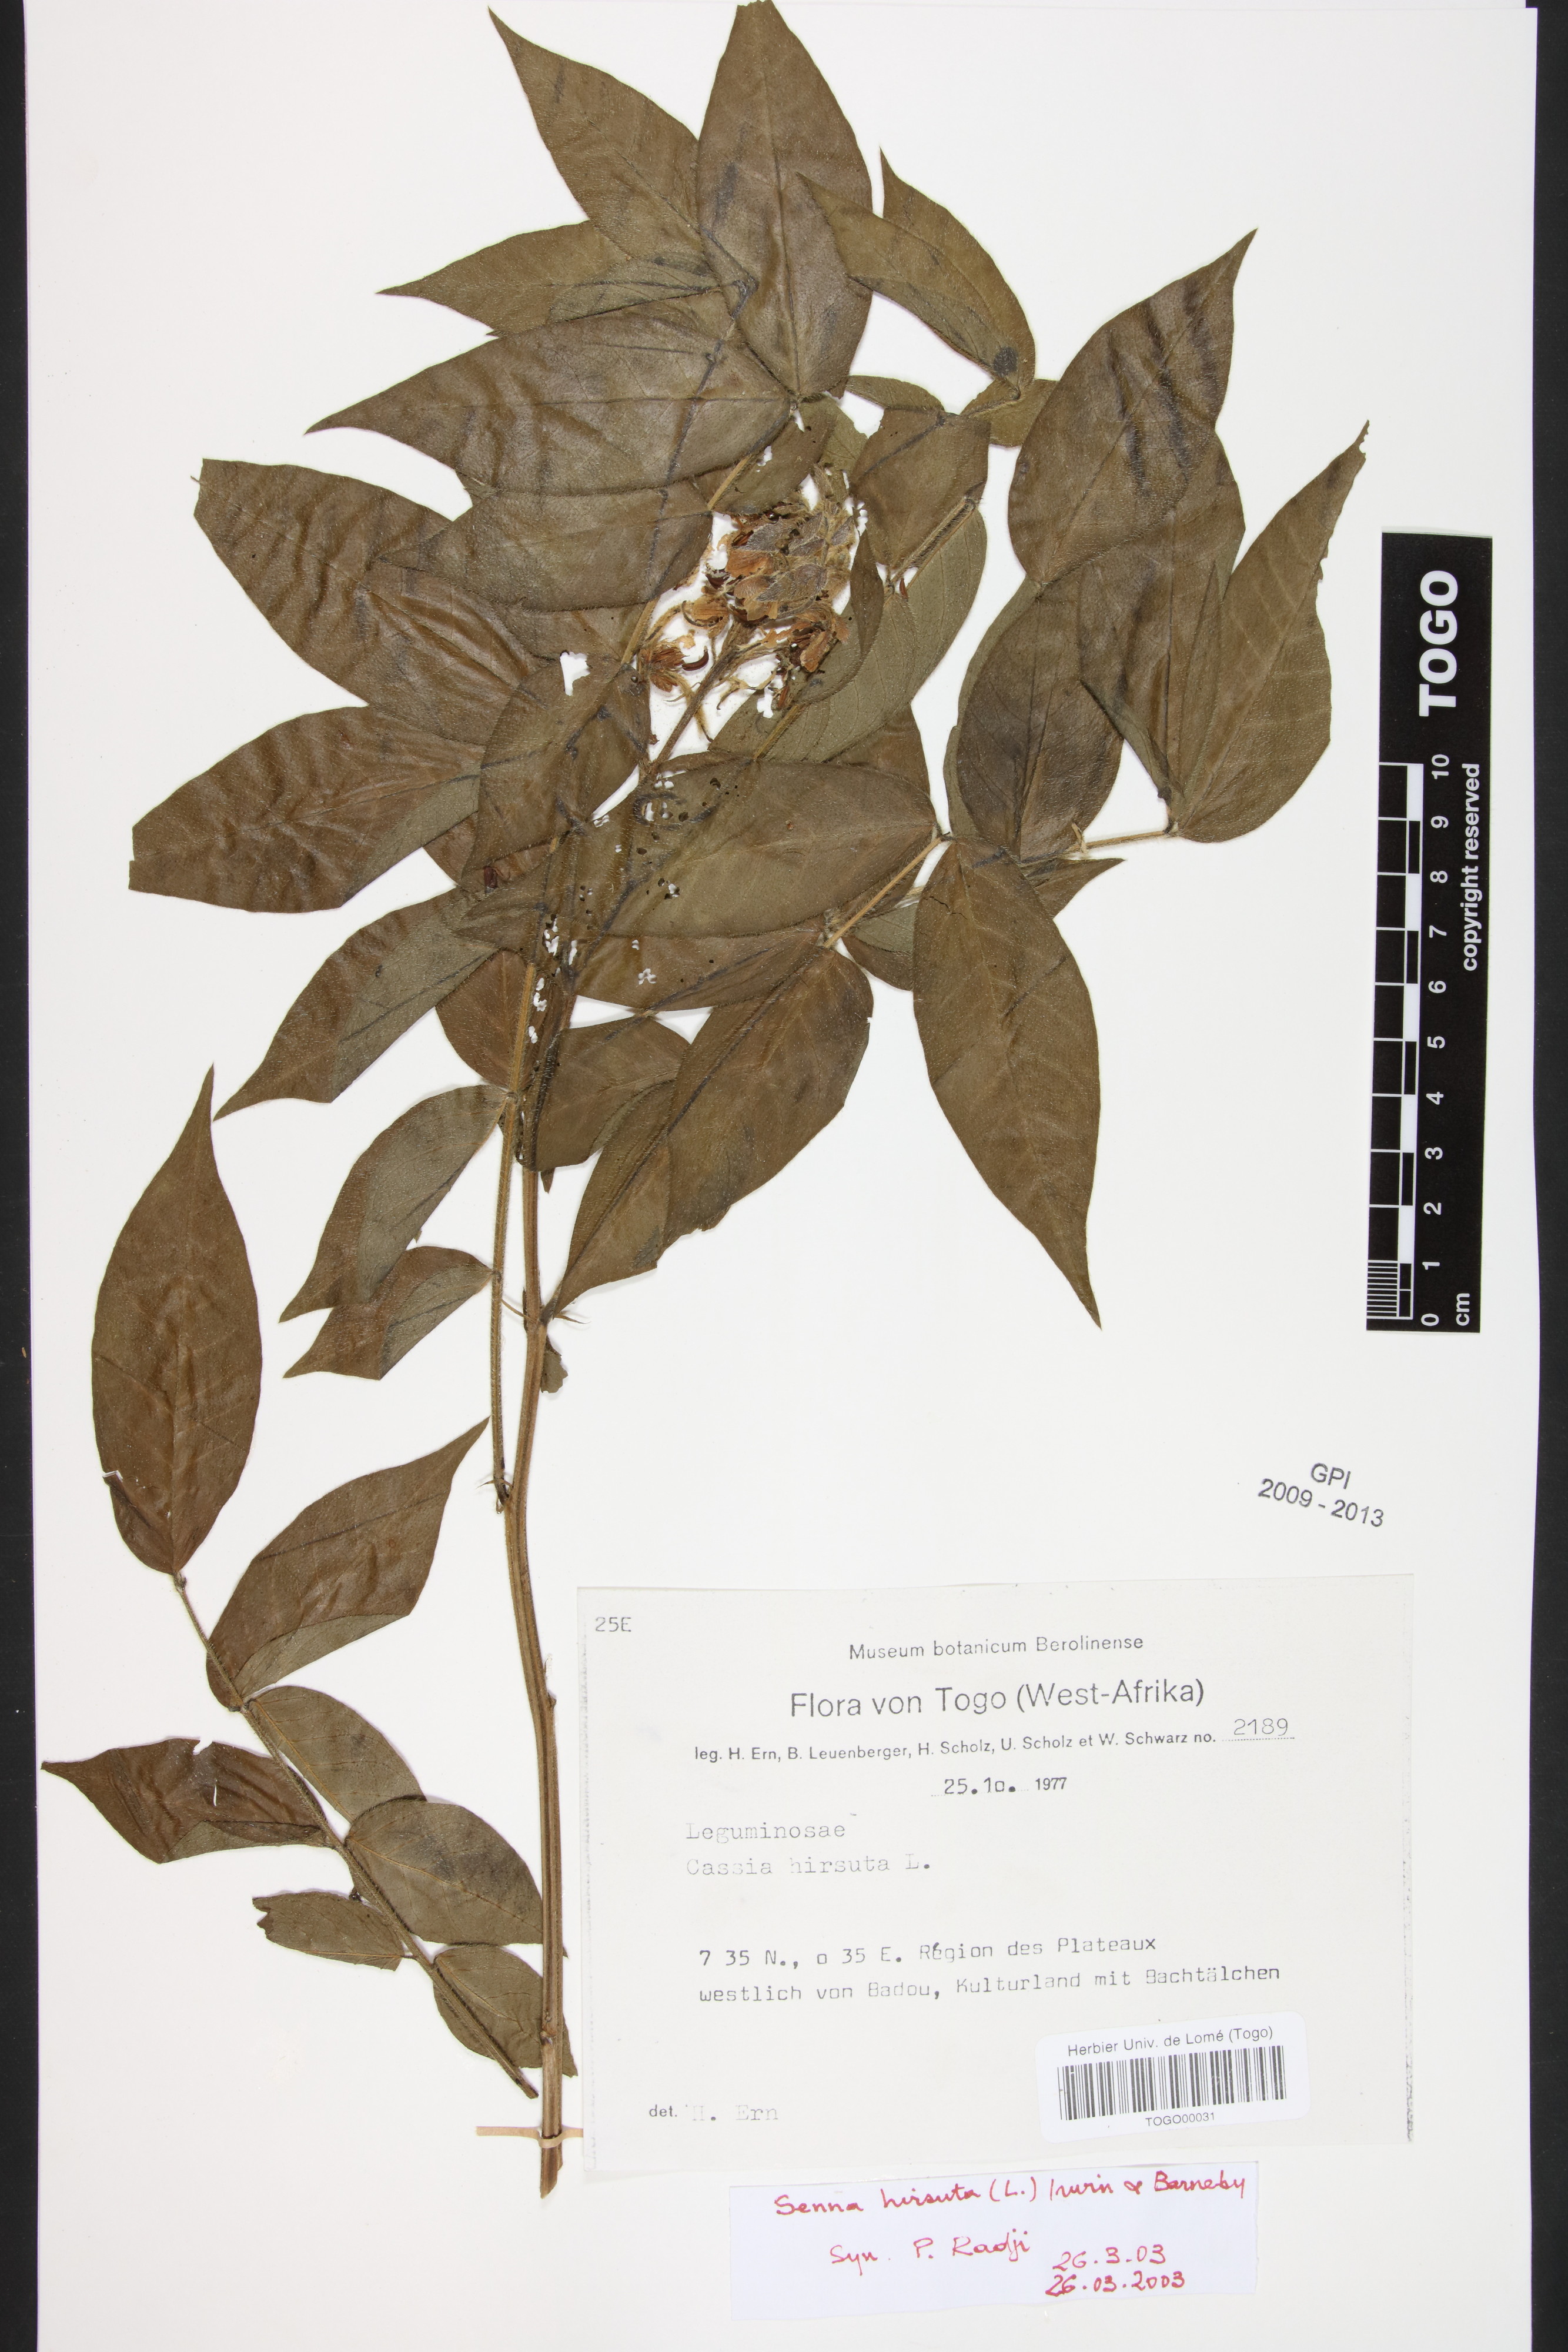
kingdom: Plantae
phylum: Tracheophyta
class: Magnoliopsida
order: Fabales
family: Fabaceae
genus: Senna
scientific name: Senna hirsuta
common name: Woolly senna
